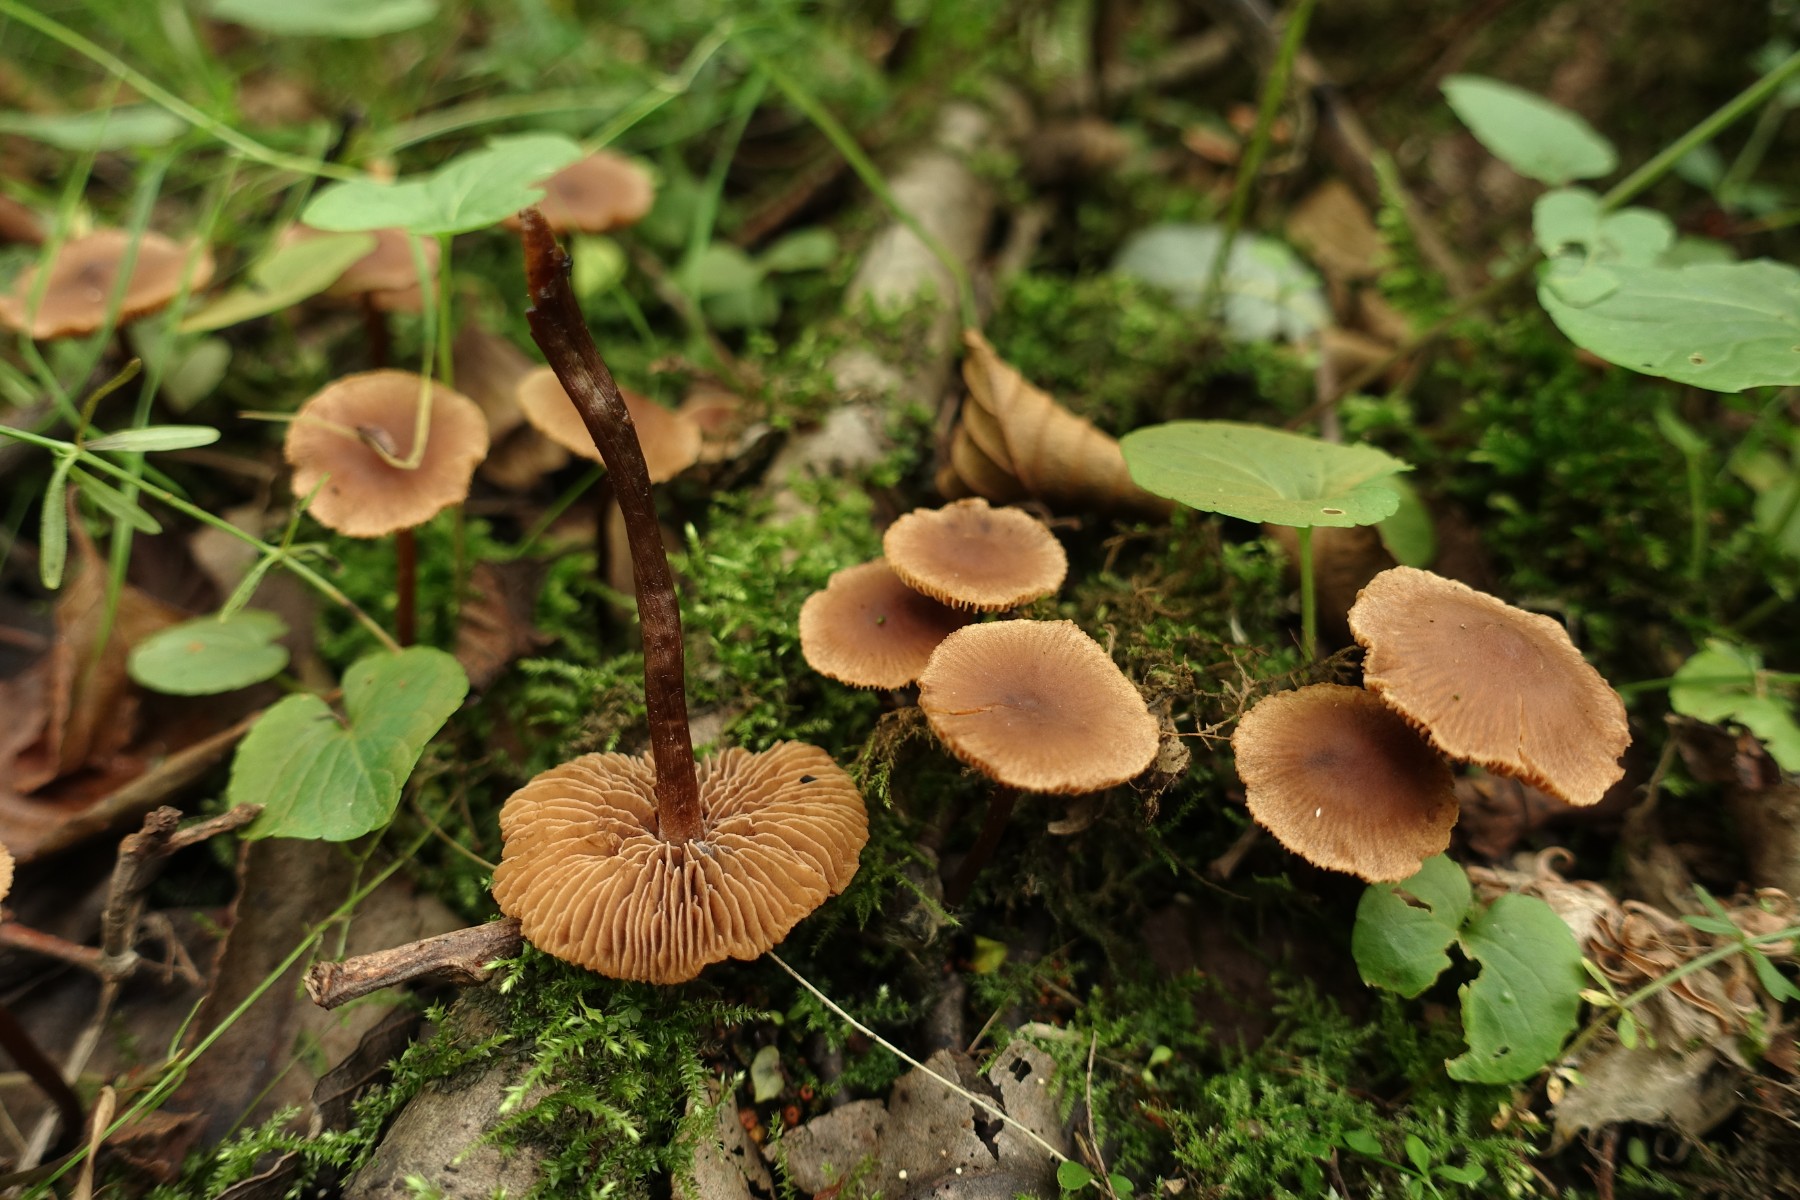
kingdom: Fungi
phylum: Basidiomycota
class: Agaricomycetes
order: Agaricales
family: Hymenogastraceae
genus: Naucoria
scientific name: Naucoria scolecina
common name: mørk elle-knaphat
